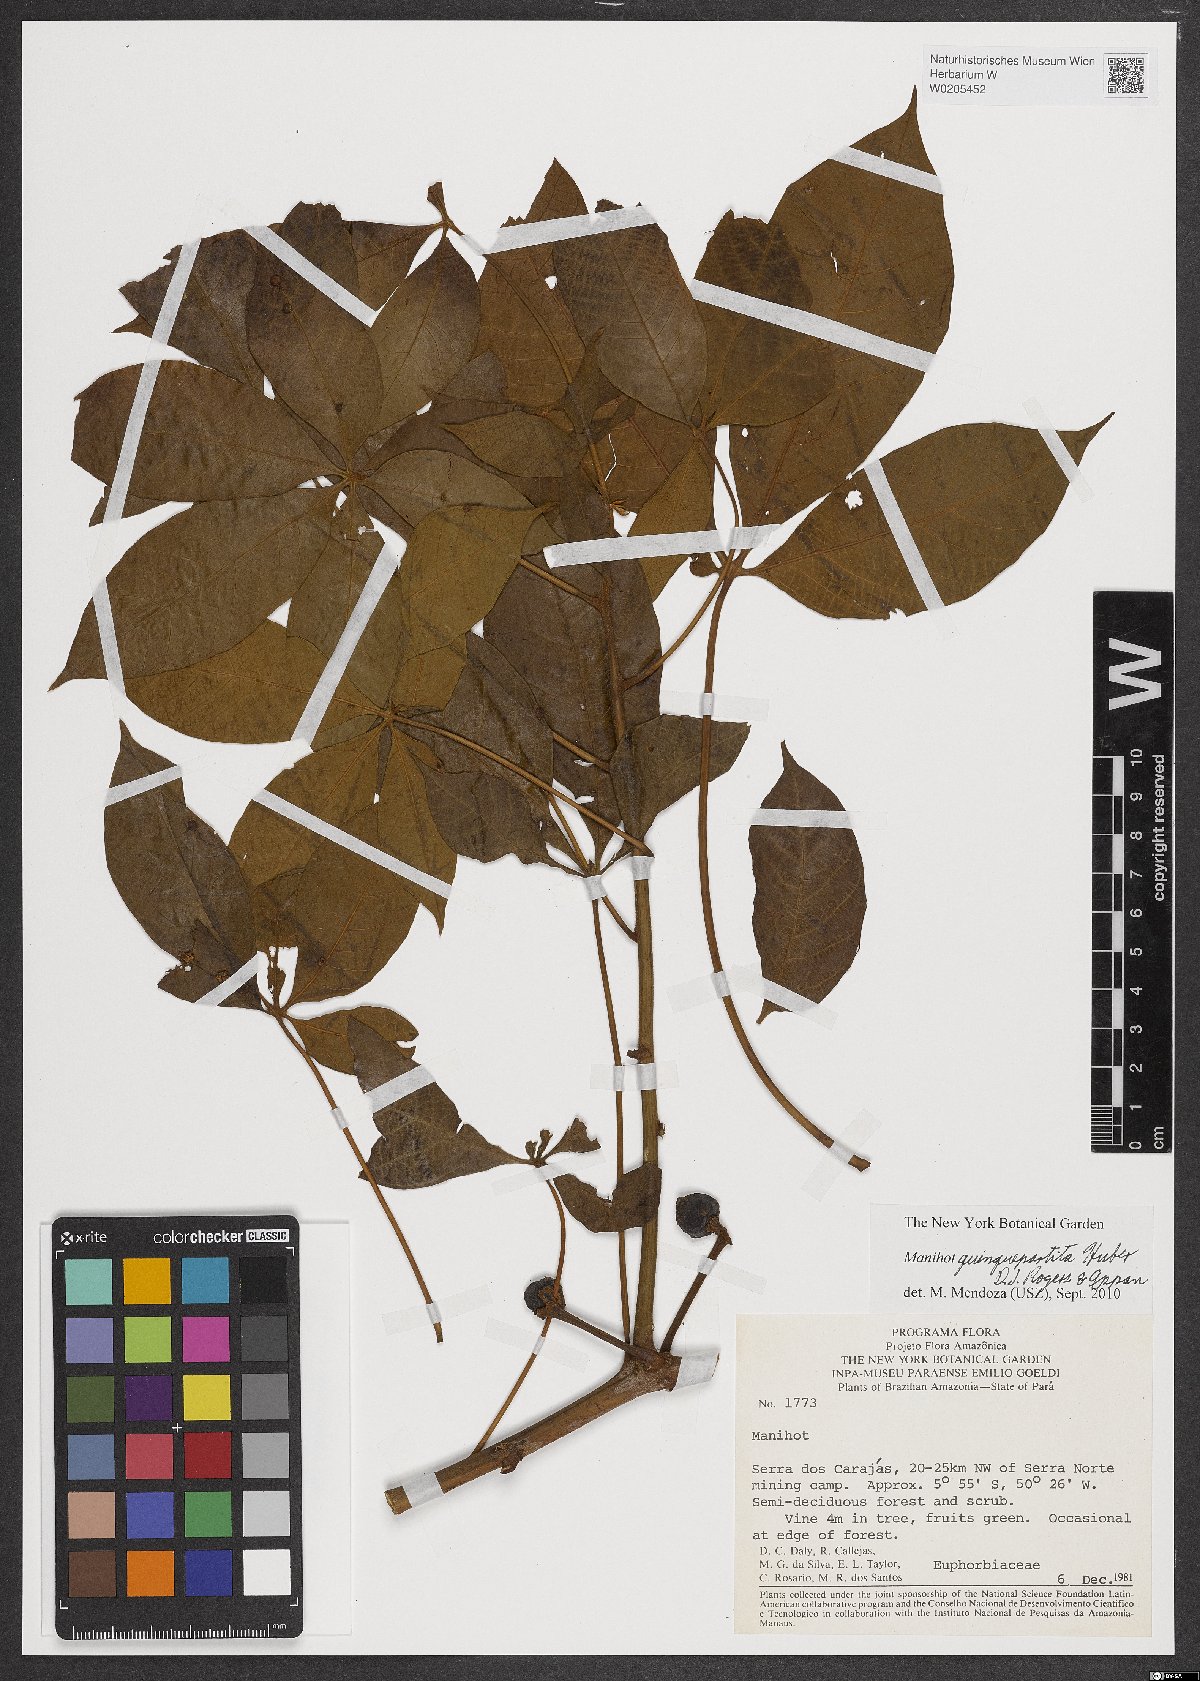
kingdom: Plantae
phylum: Tracheophyta
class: Magnoliopsida
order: Malpighiales
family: Euphorbiaceae
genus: Manihot
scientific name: Manihot quinquepartita
